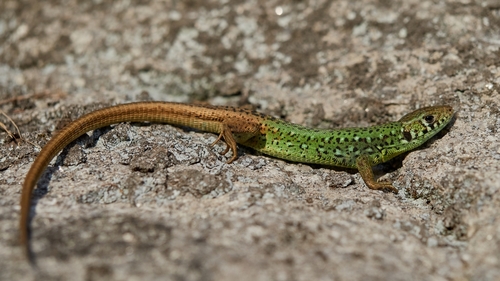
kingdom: Animalia
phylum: Chordata
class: Squamata
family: Lacertidae
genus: Lacerta
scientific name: Lacerta schreiberi
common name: Iberian emerald lizard
